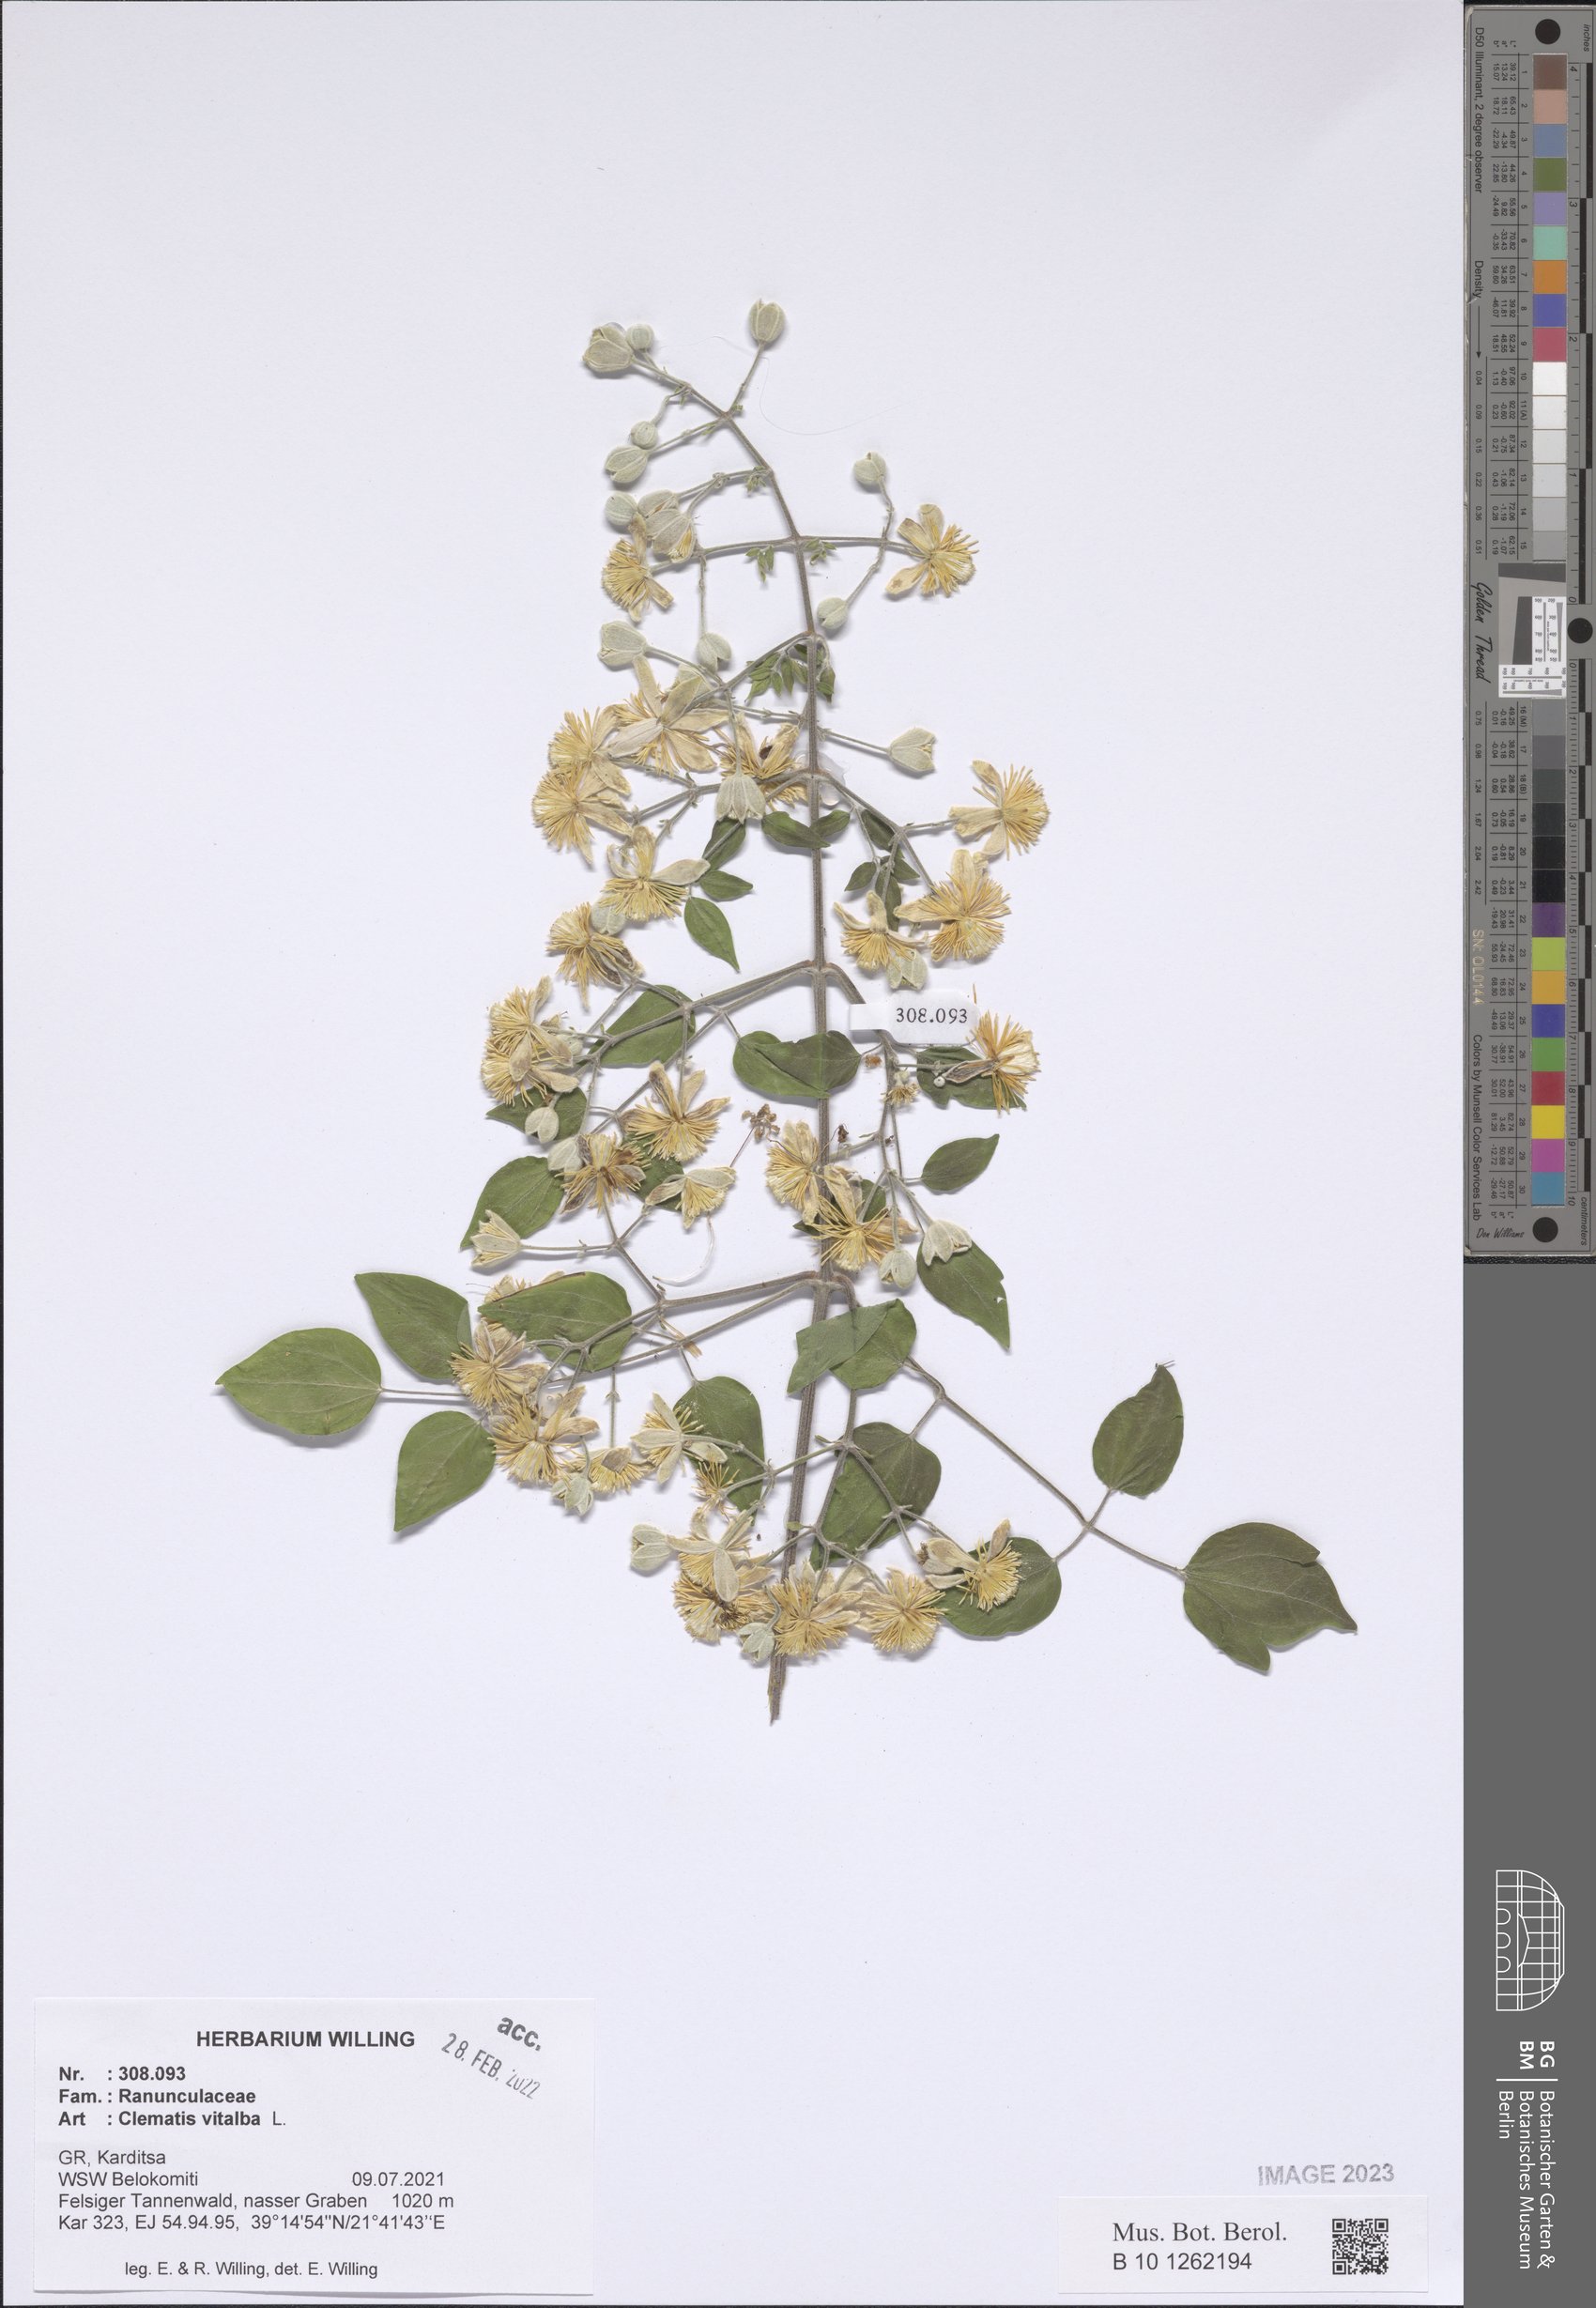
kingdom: Plantae
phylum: Tracheophyta
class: Magnoliopsida
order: Ranunculales
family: Ranunculaceae
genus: Clematis
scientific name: Clematis vitalba
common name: Evergreen clematis
